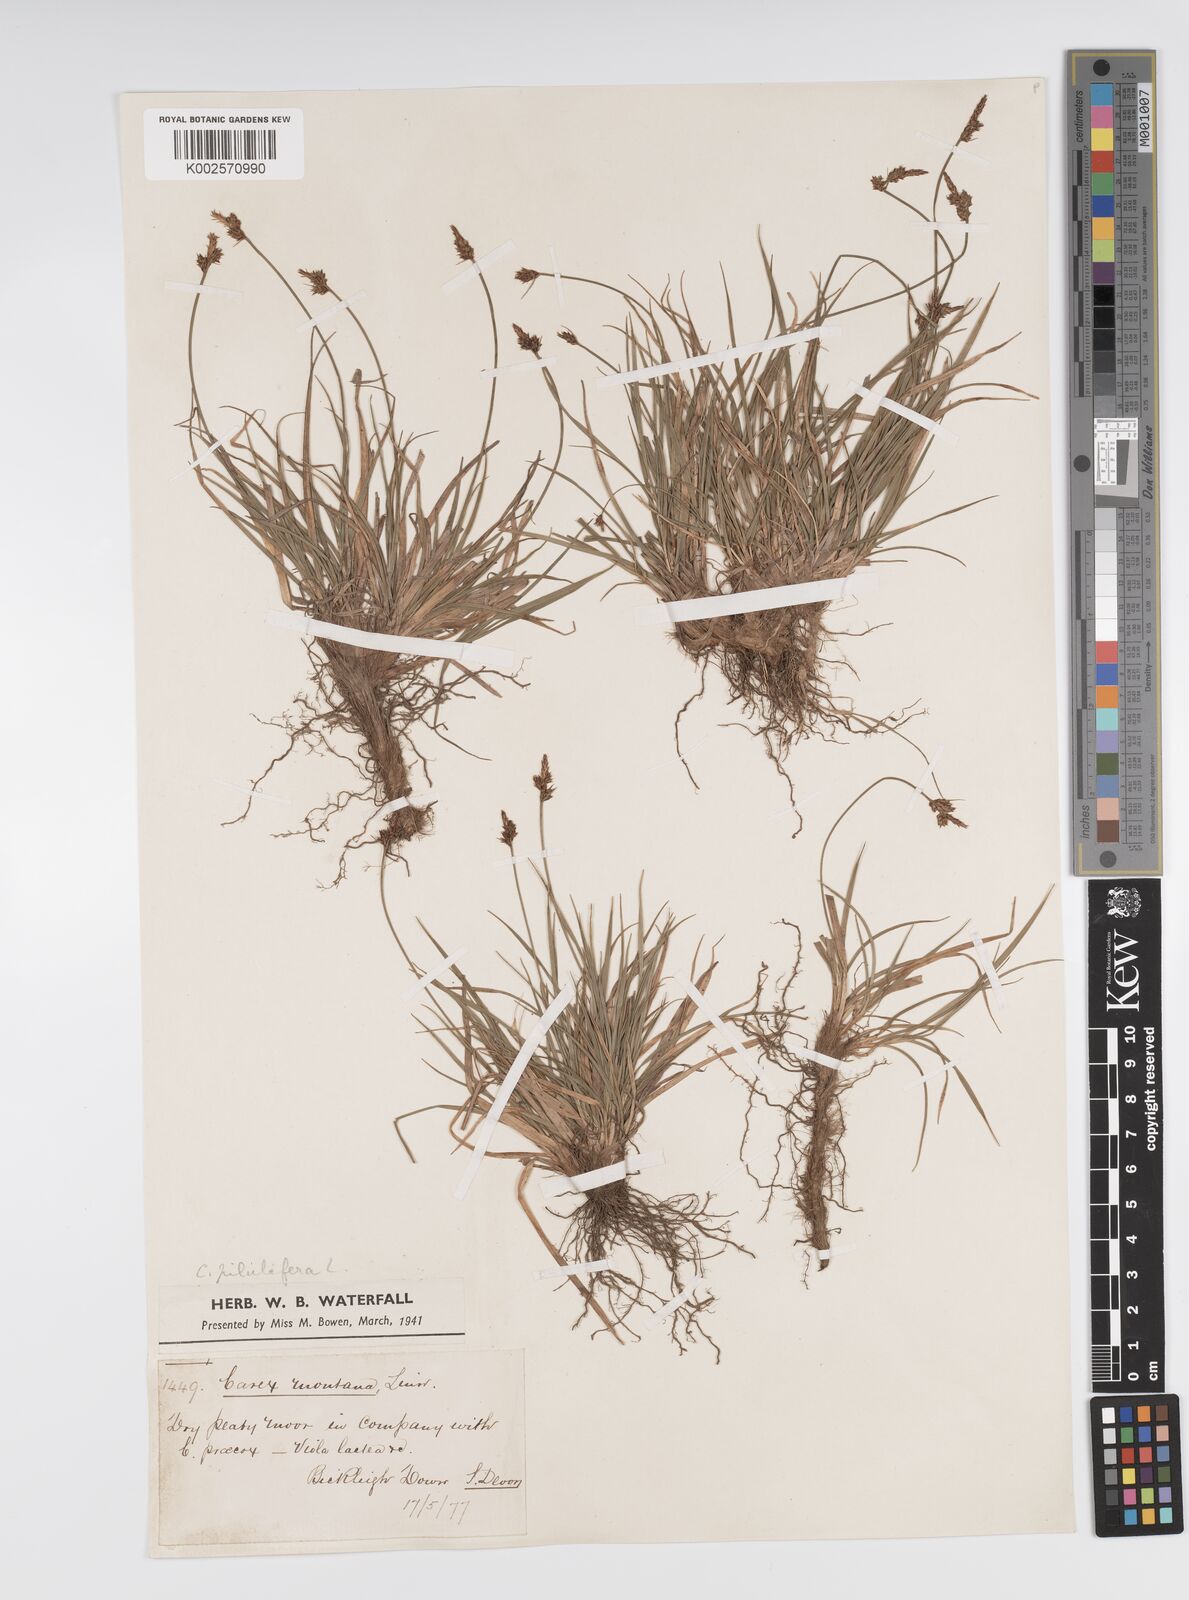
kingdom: Plantae
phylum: Tracheophyta
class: Liliopsida
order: Poales
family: Cyperaceae
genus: Carex
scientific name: Carex praecox
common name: Early sedge
